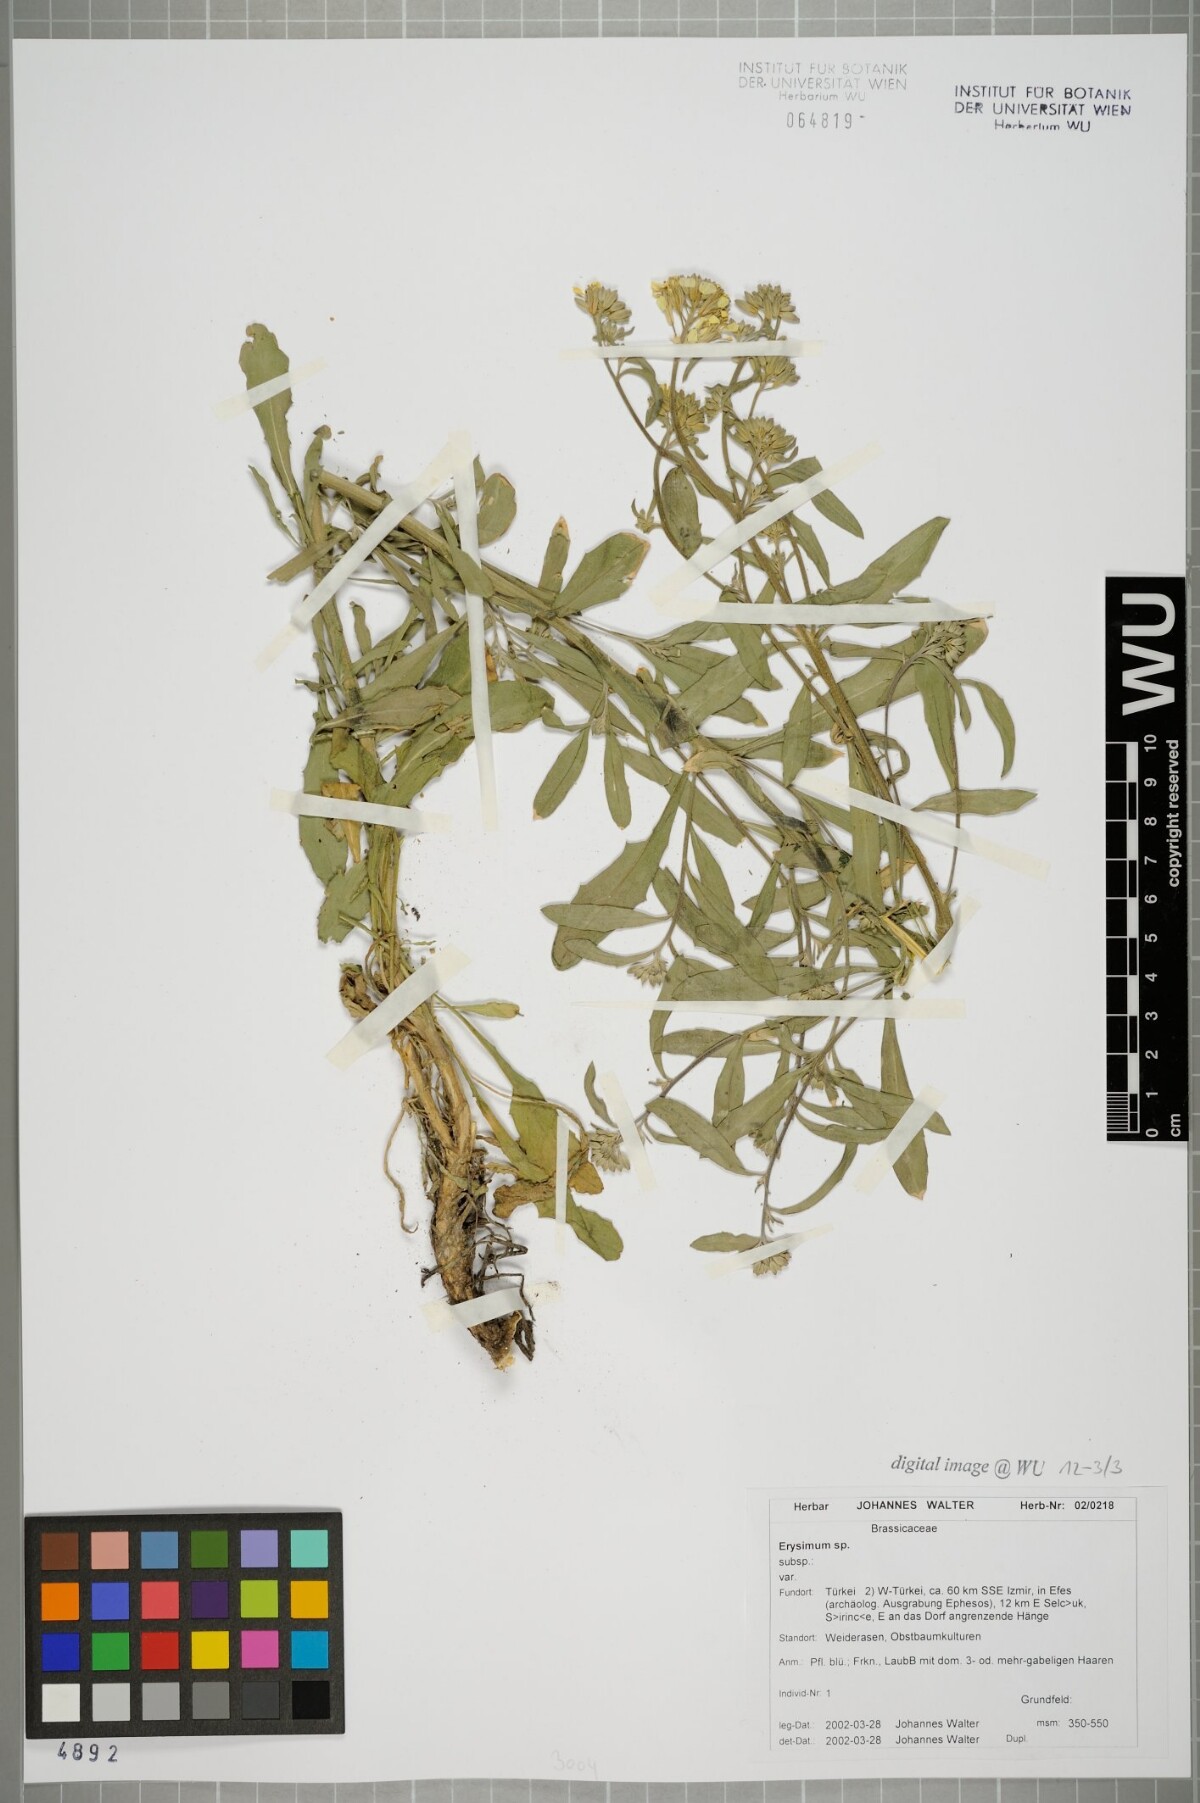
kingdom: Plantae
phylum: Tracheophyta
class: Magnoliopsida
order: Brassicales
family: Brassicaceae
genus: Erysimum
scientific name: Erysimum
